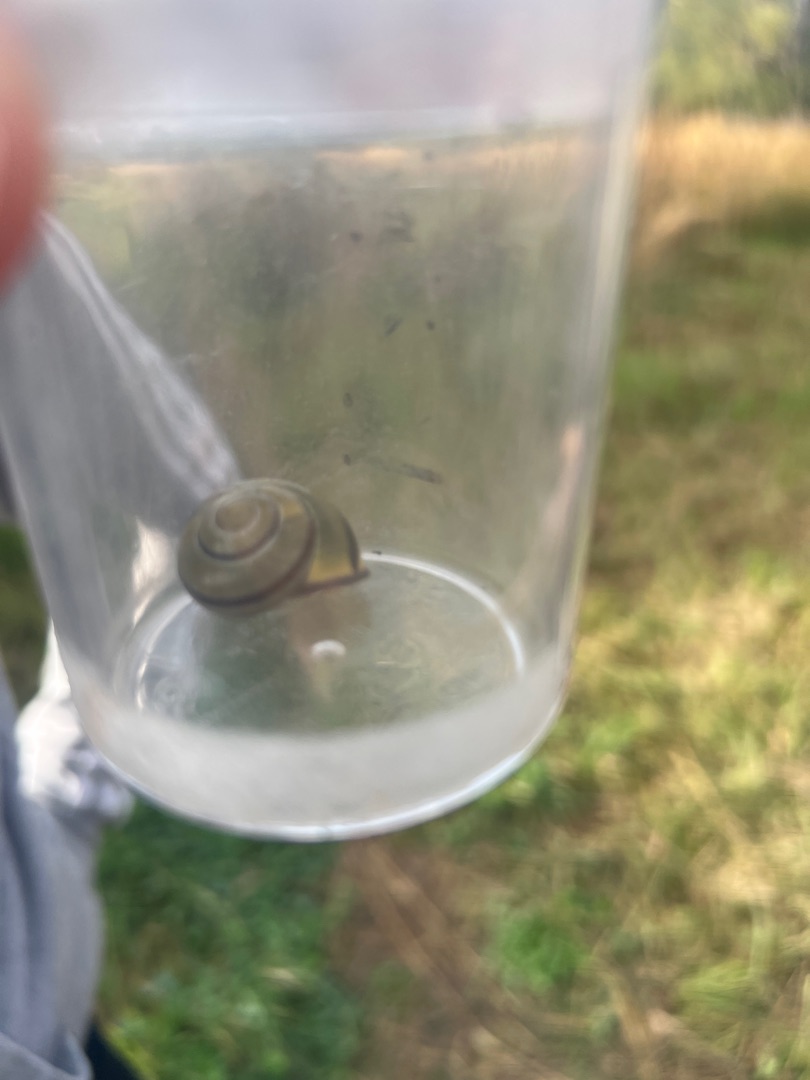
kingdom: Animalia
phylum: Mollusca
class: Gastropoda
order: Stylommatophora
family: Helicidae
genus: Cepaea
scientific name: Cepaea nemoralis
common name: Lundsnegl
